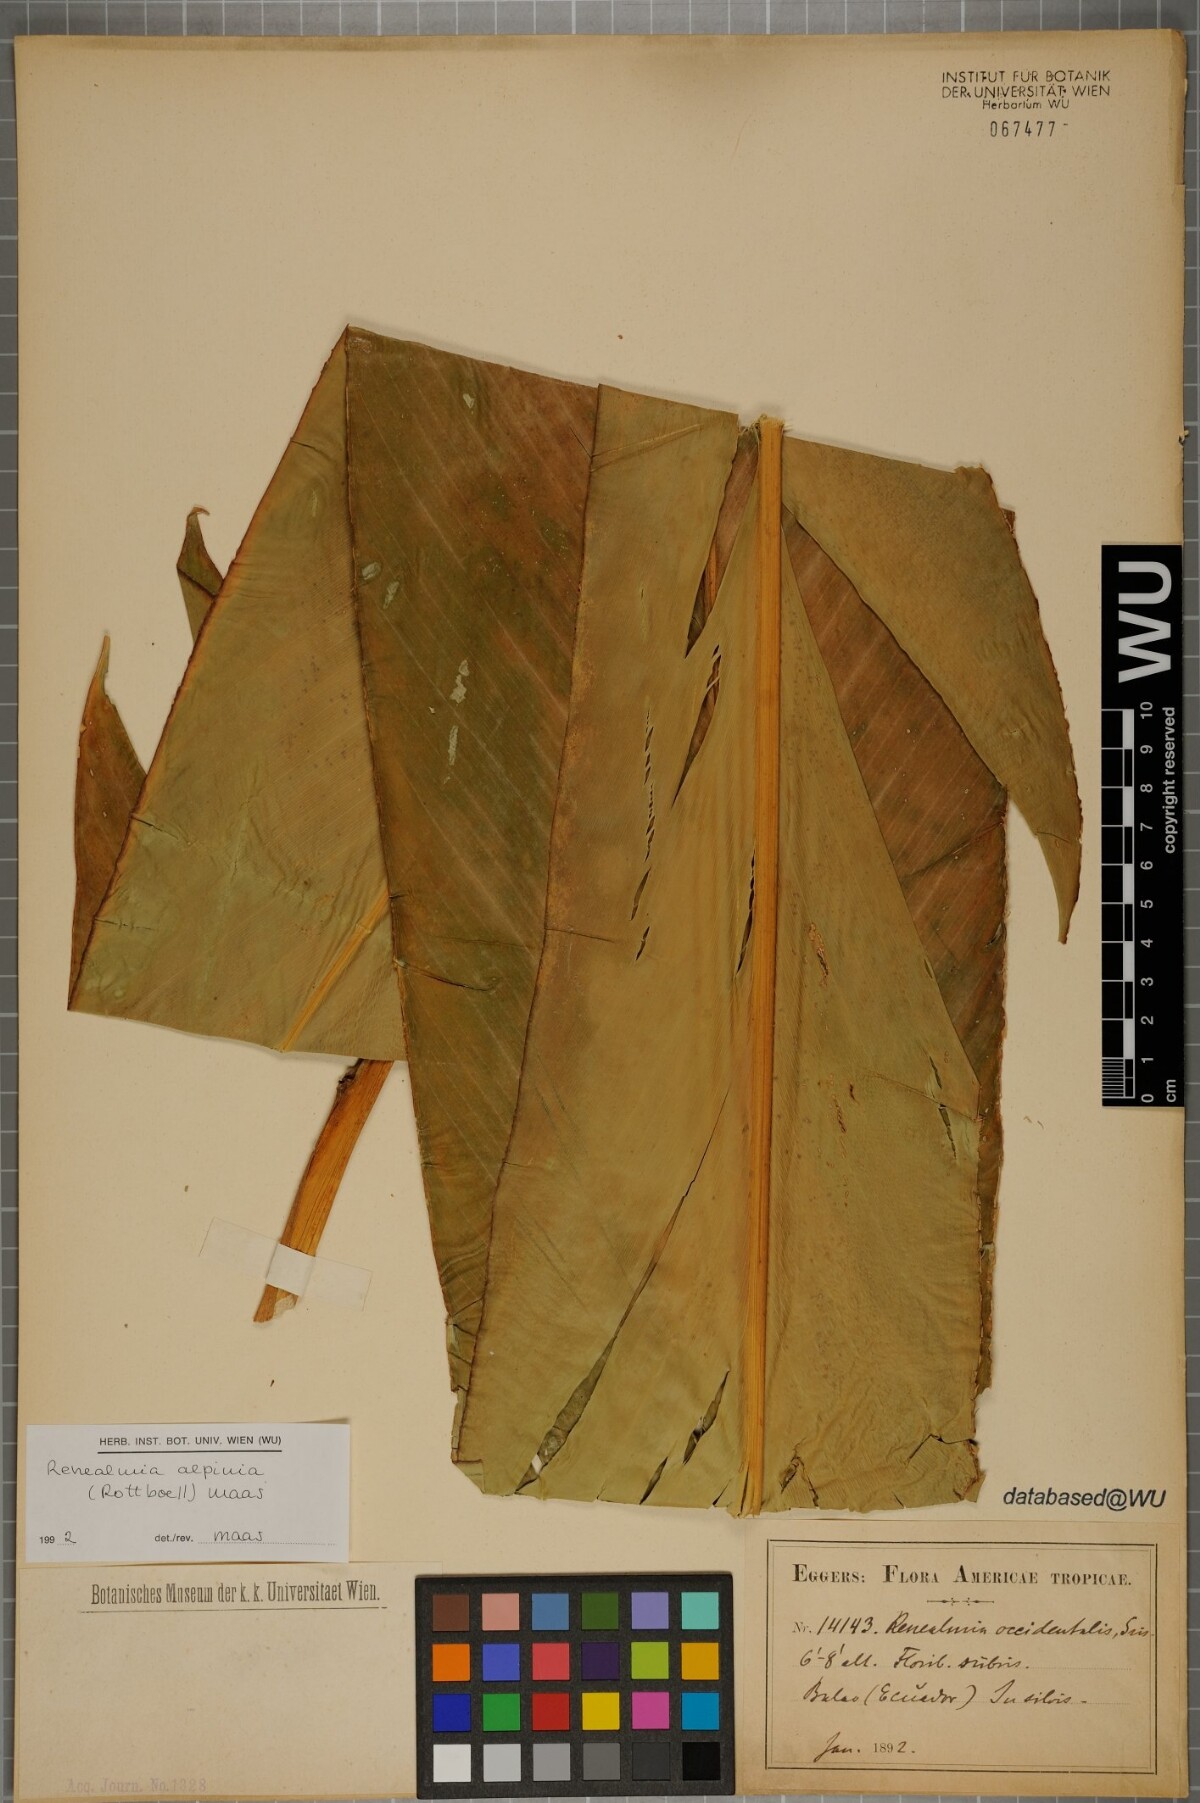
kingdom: Plantae
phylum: Tracheophyta
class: Liliopsida
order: Zingiberales
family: Zingiberaceae
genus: Renealmia
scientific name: Renealmia alpinia
